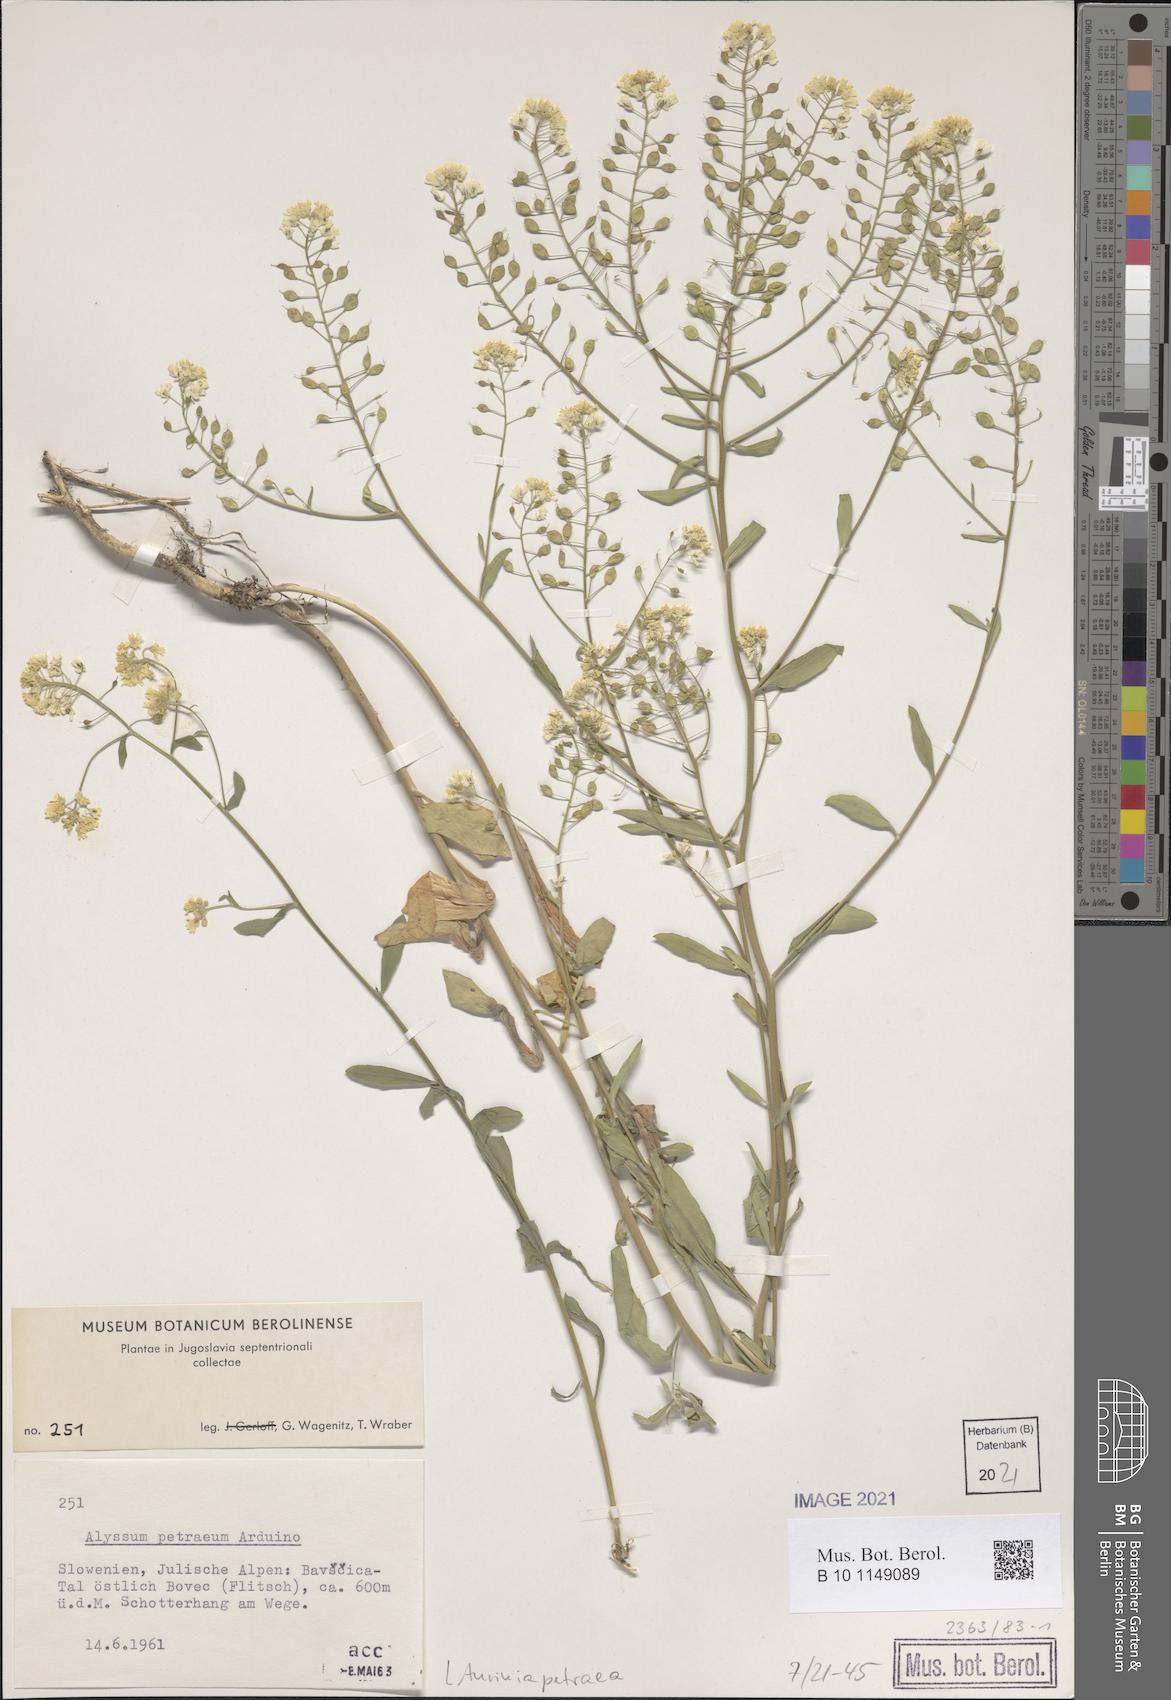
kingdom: Plantae
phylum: Tracheophyta
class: Magnoliopsida
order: Brassicales
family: Brassicaceae
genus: Aurinia
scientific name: Aurinia petraea
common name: Goldentuft
